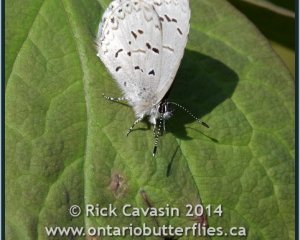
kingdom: Animalia
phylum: Arthropoda
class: Insecta
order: Lepidoptera
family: Lycaenidae
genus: Celastrina
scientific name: Celastrina lucia
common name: Northern Spring Azure
